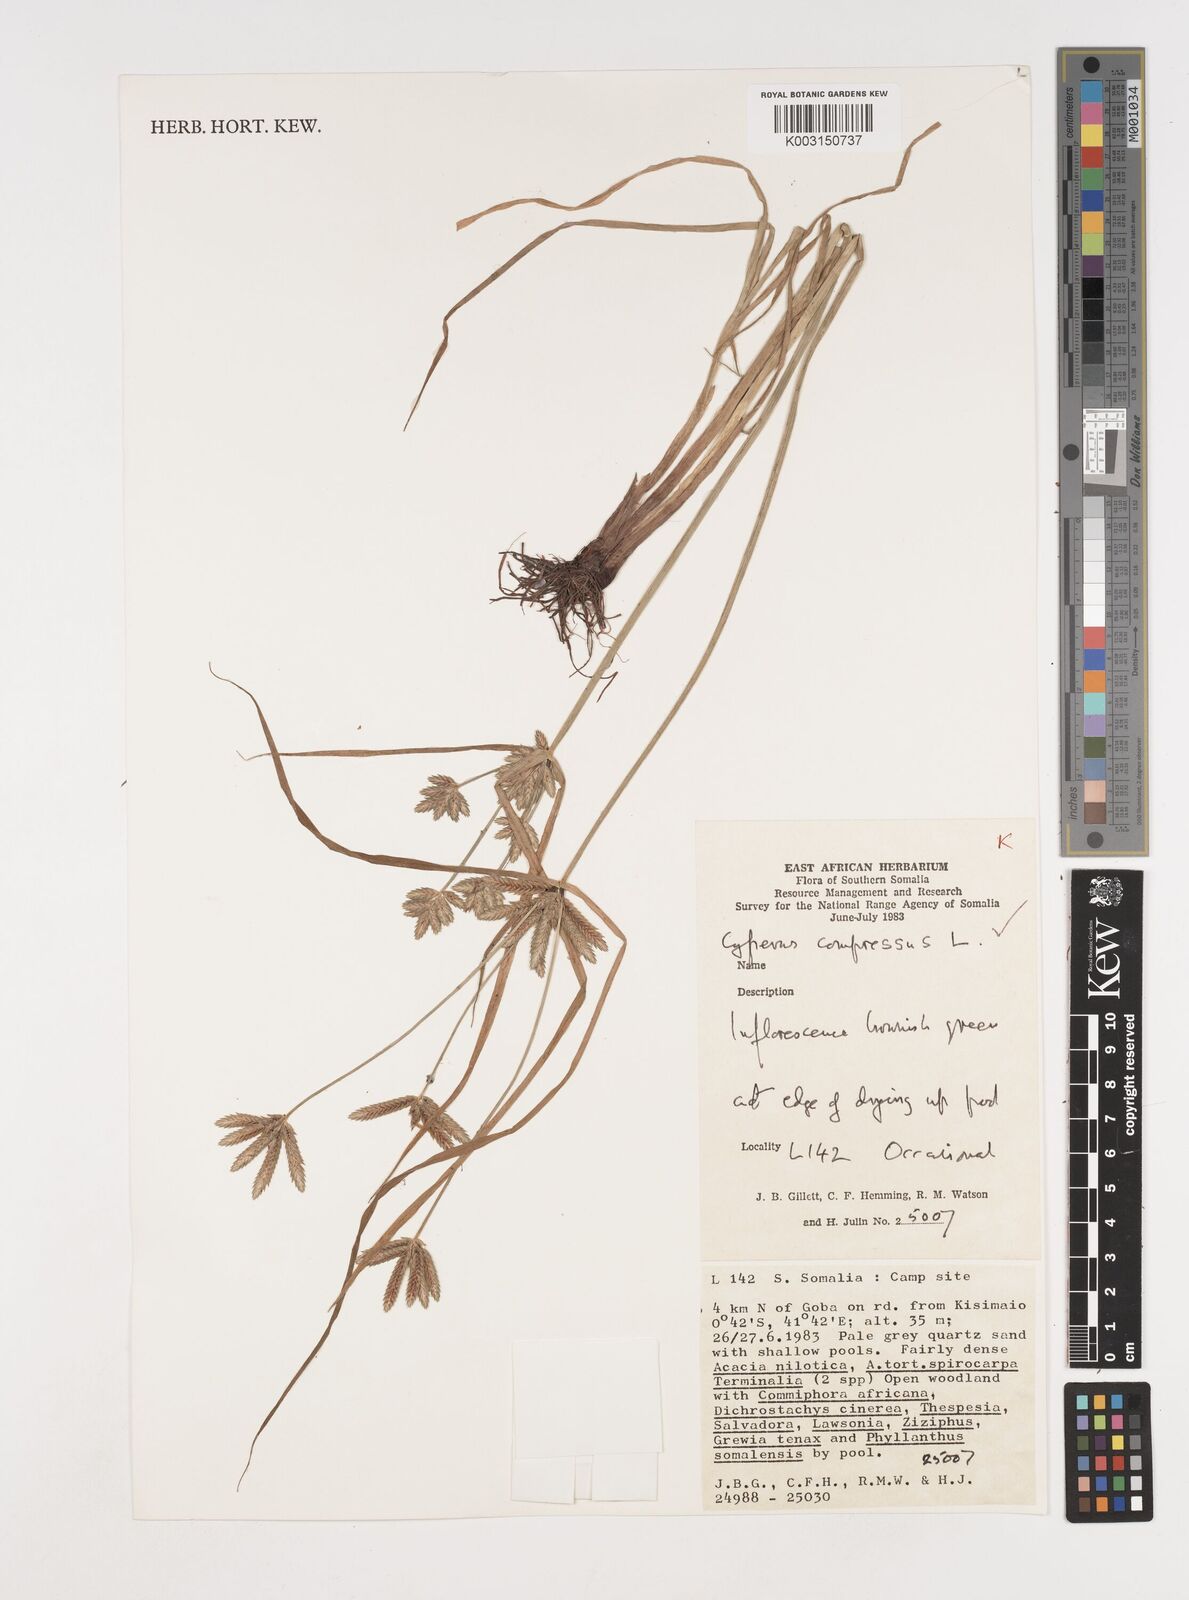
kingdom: Plantae
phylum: Tracheophyta
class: Liliopsida
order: Poales
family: Cyperaceae
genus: Cyperus
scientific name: Cyperus compressus
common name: Poorland flatsedge
